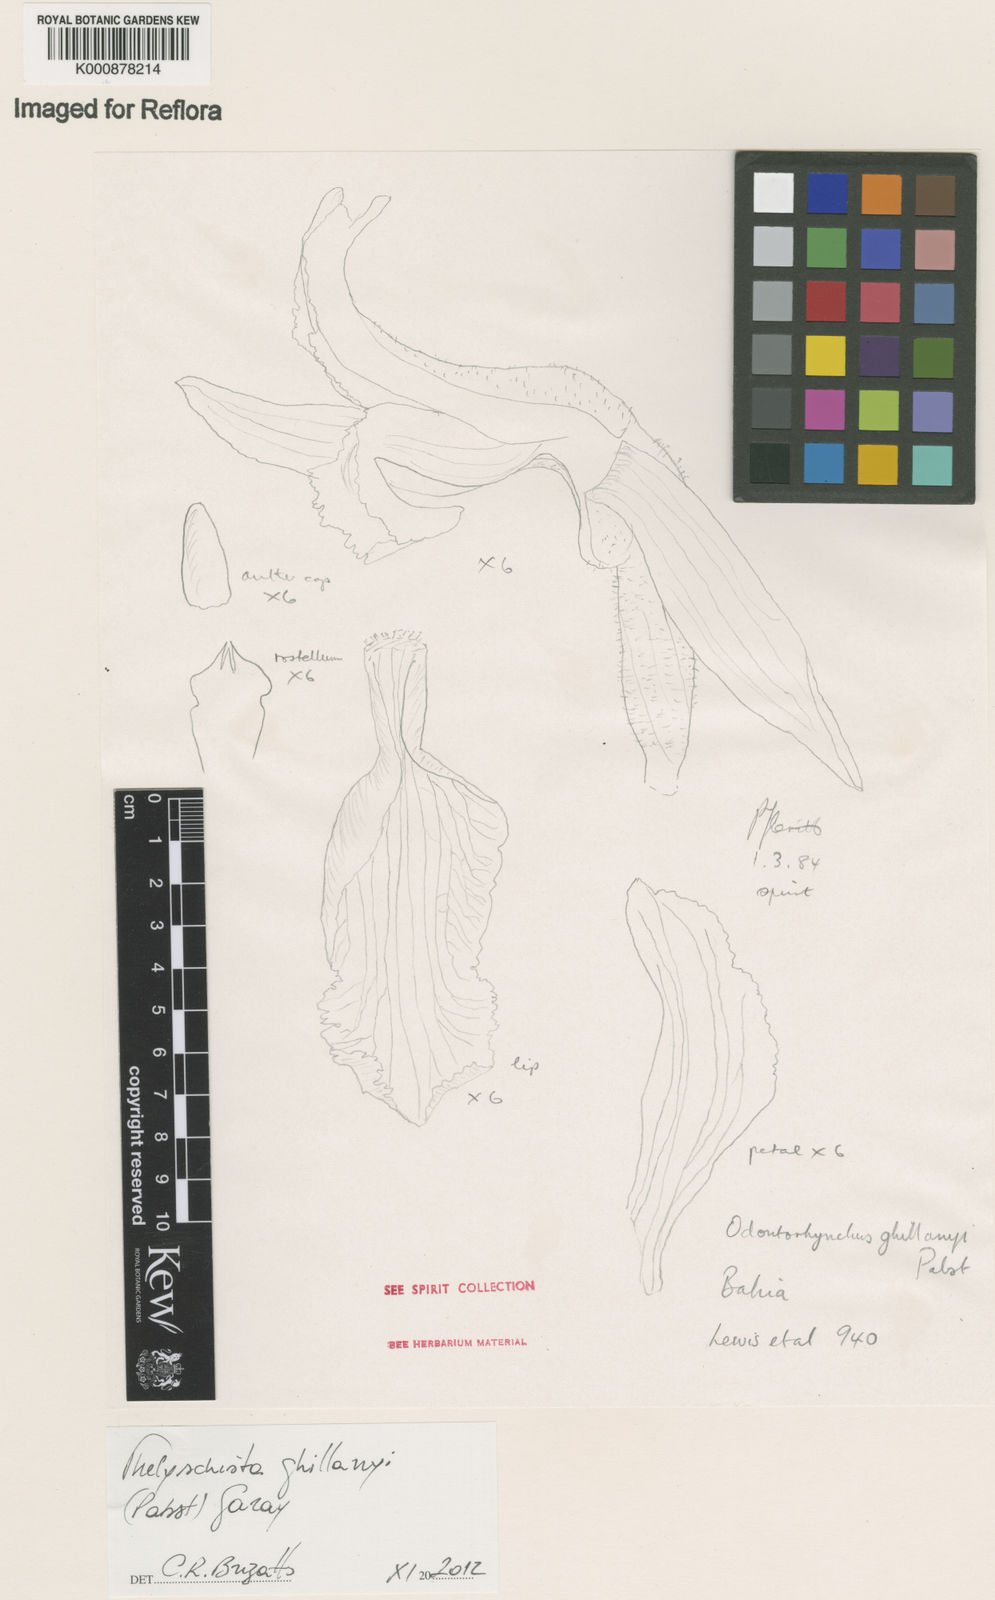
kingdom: Plantae
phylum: Tracheophyta
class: Liliopsida
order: Asparagales
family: Orchidaceae
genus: Thelyschista
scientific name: Thelyschista ghillanyi
